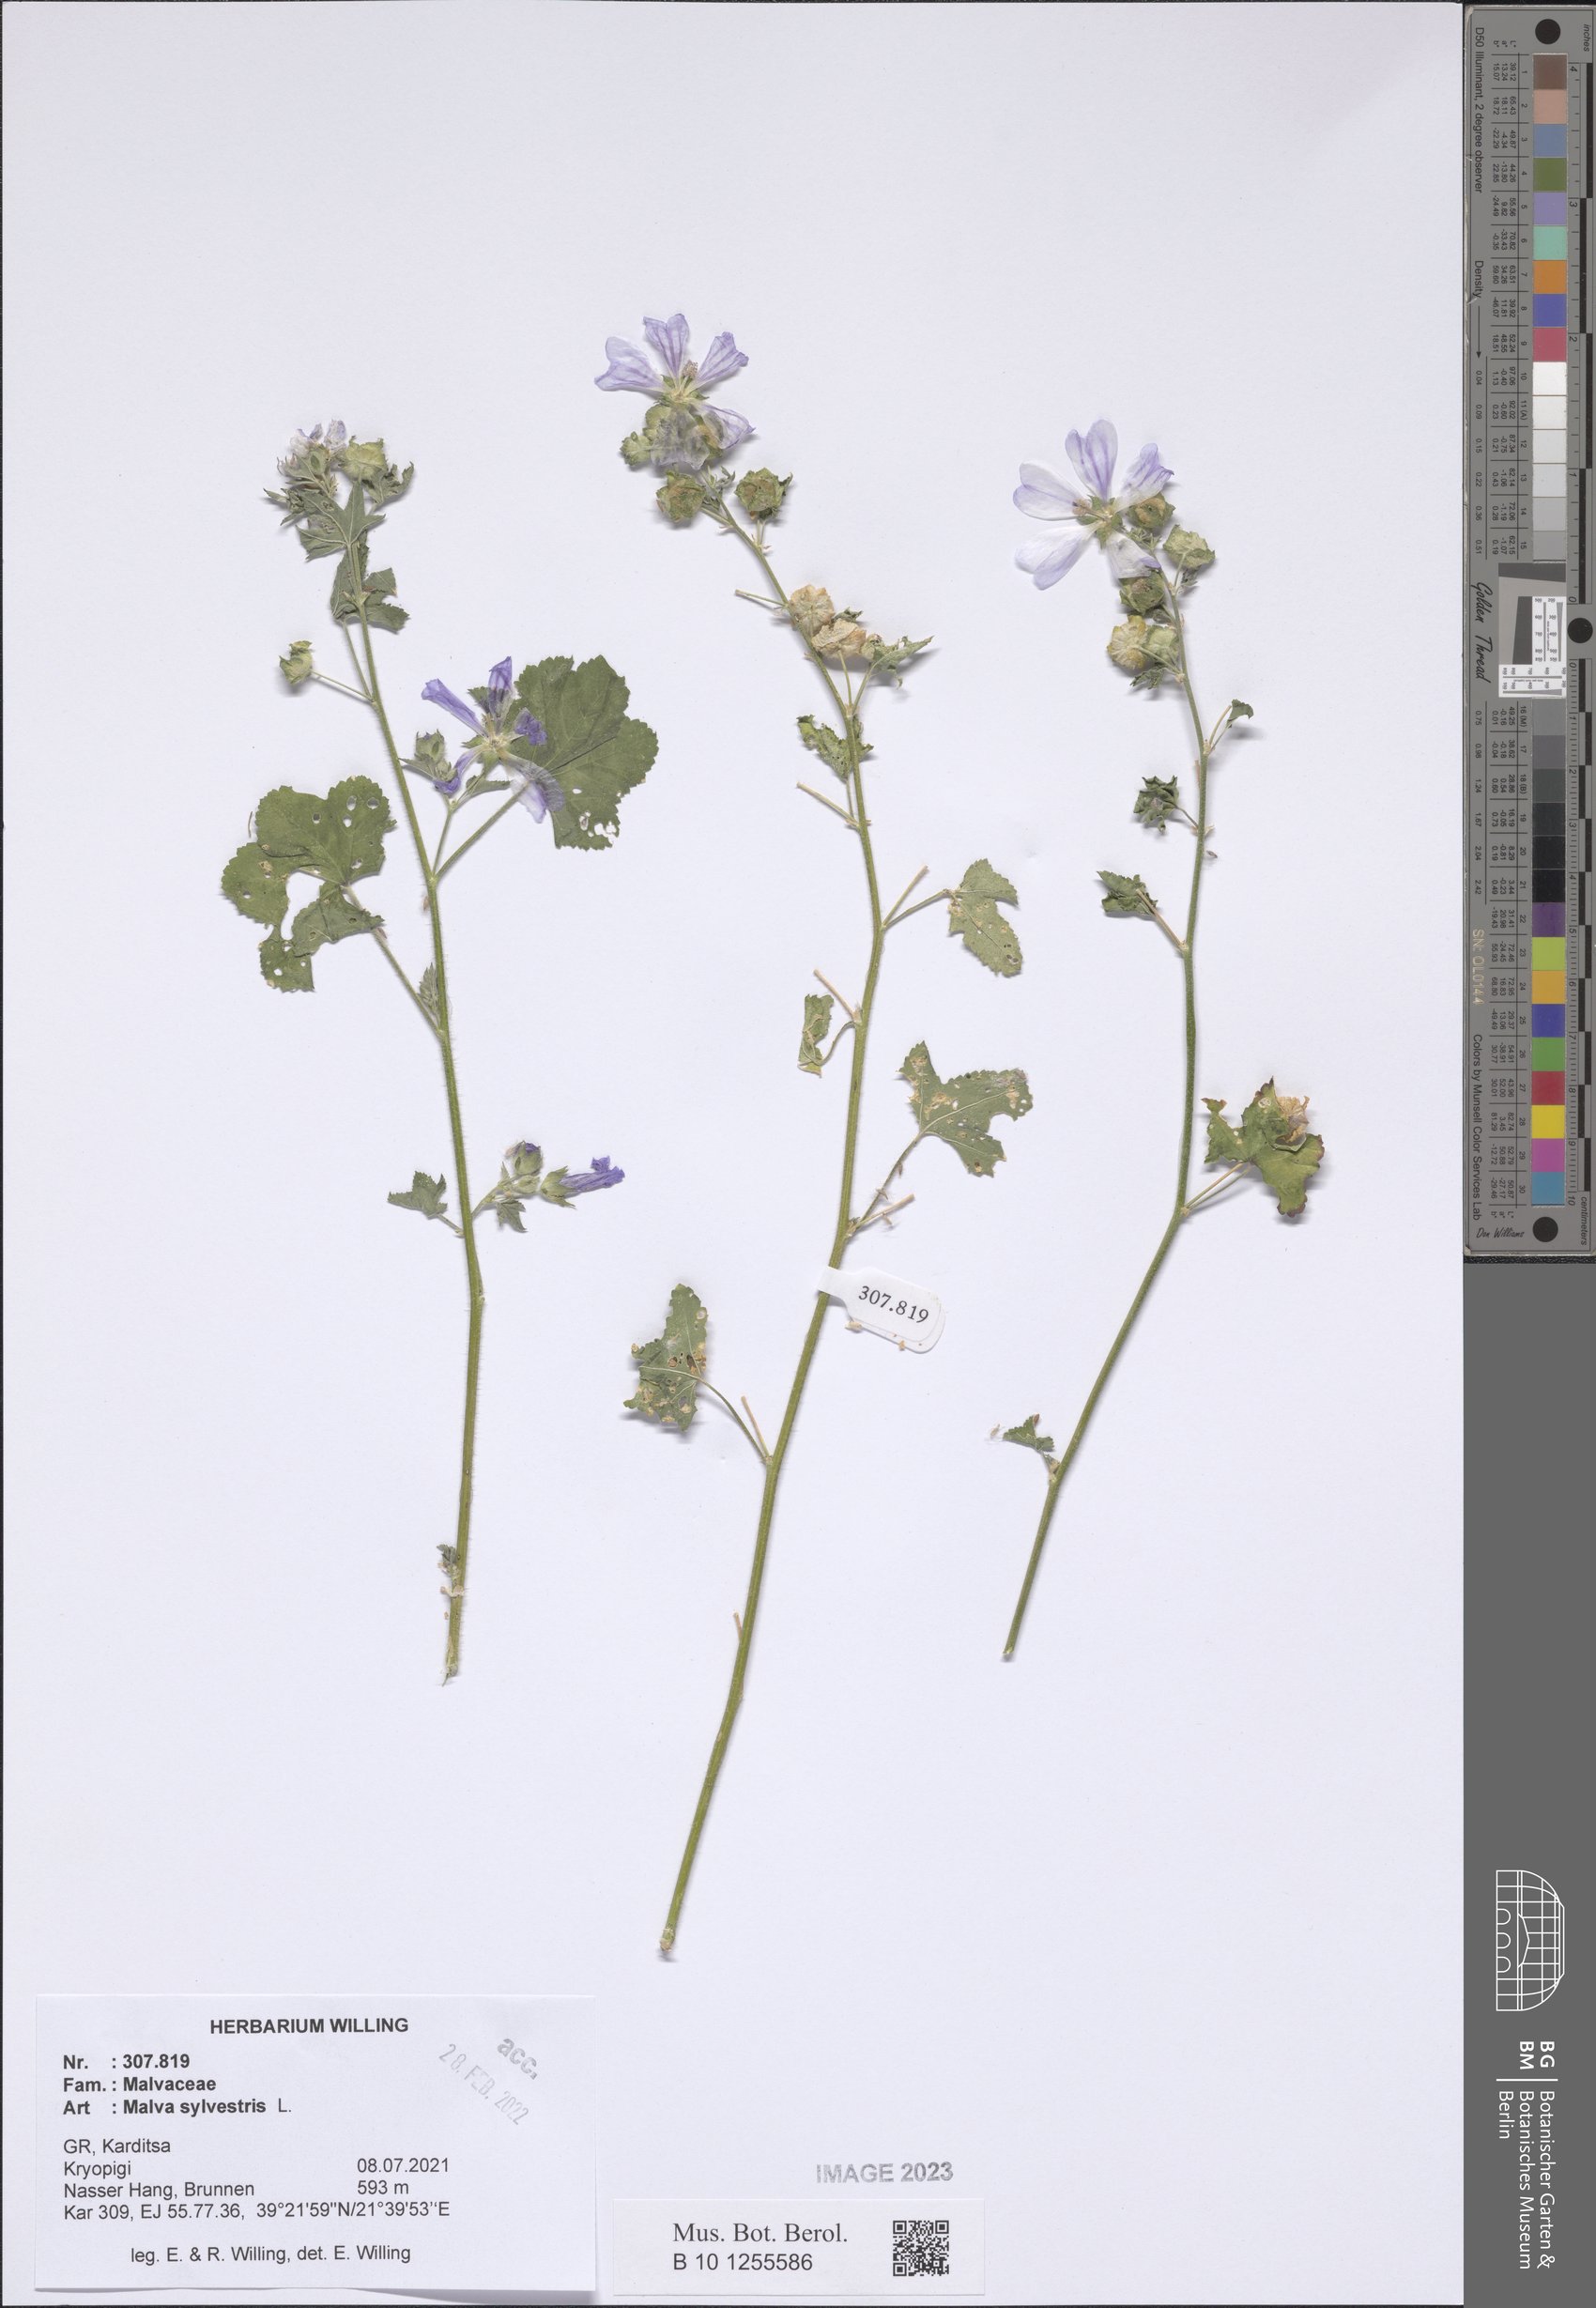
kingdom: Plantae
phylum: Tracheophyta
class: Magnoliopsida
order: Malvales
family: Malvaceae
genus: Malva
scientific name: Malva sylvestris
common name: Common mallow
